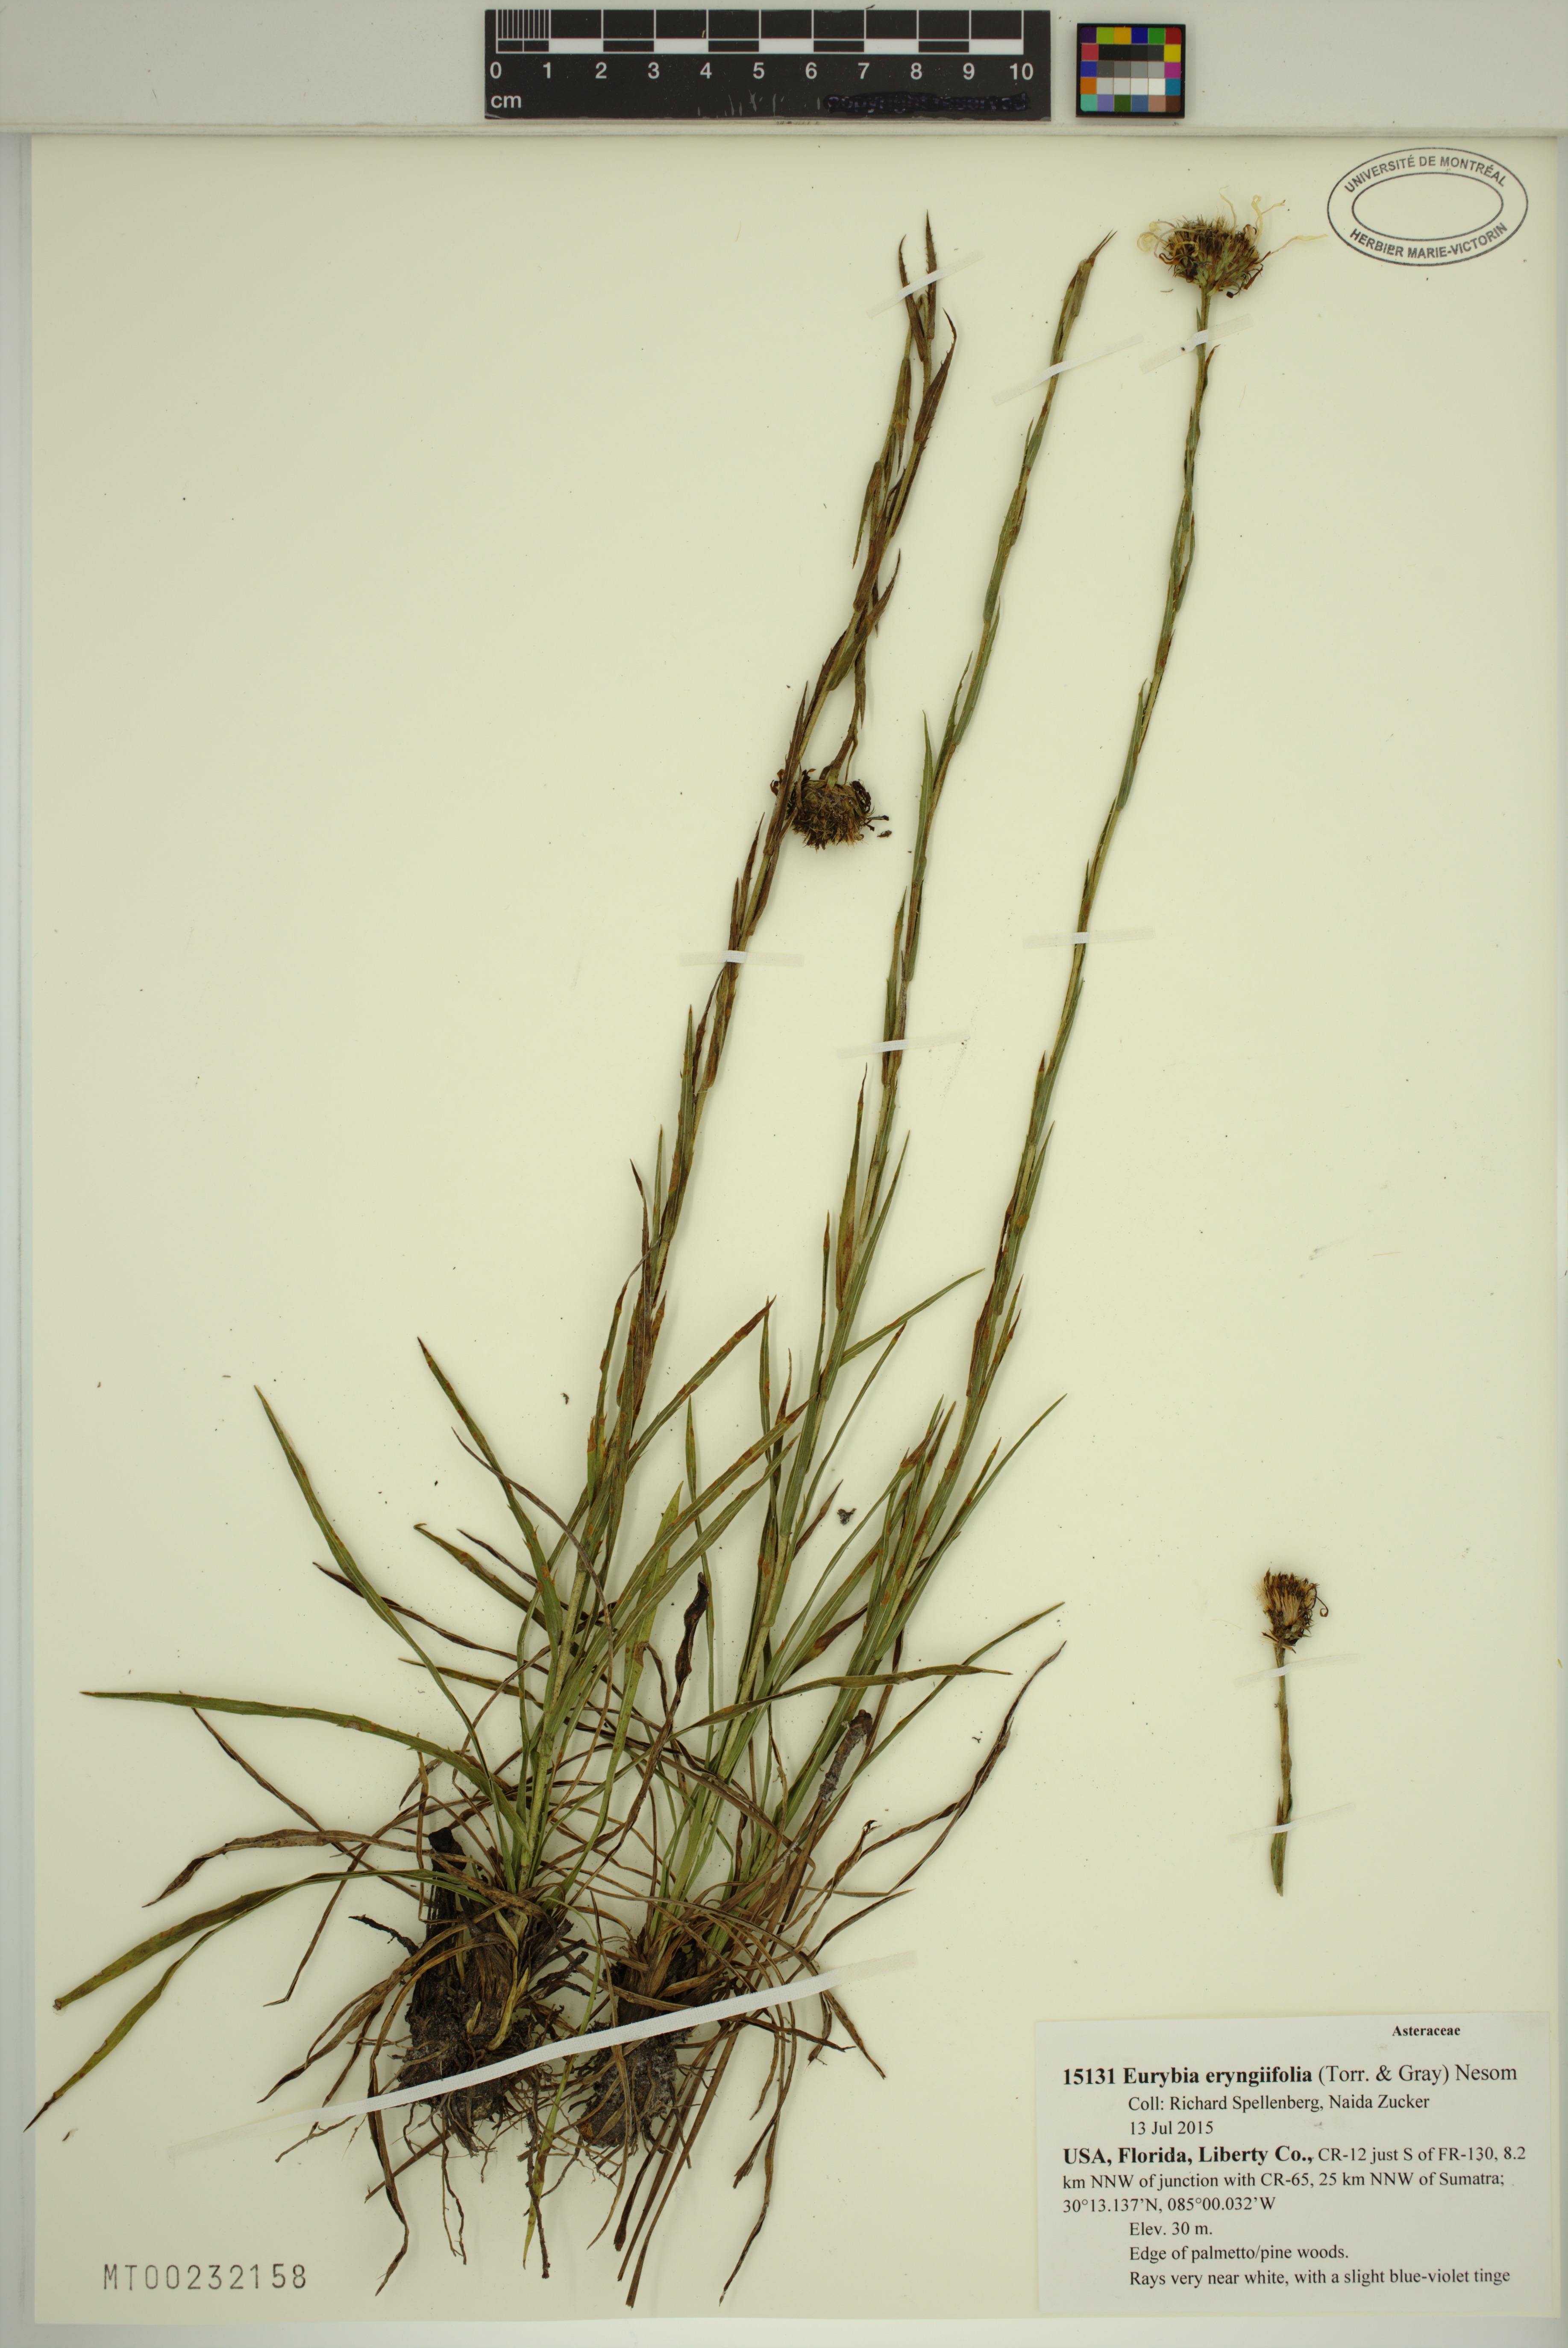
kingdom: Plantae
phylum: Tracheophyta
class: Magnoliopsida
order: Asterales
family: Asteraceae
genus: Eurybia
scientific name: Eurybia eryngiifolia
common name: Thistle-leaf aster
